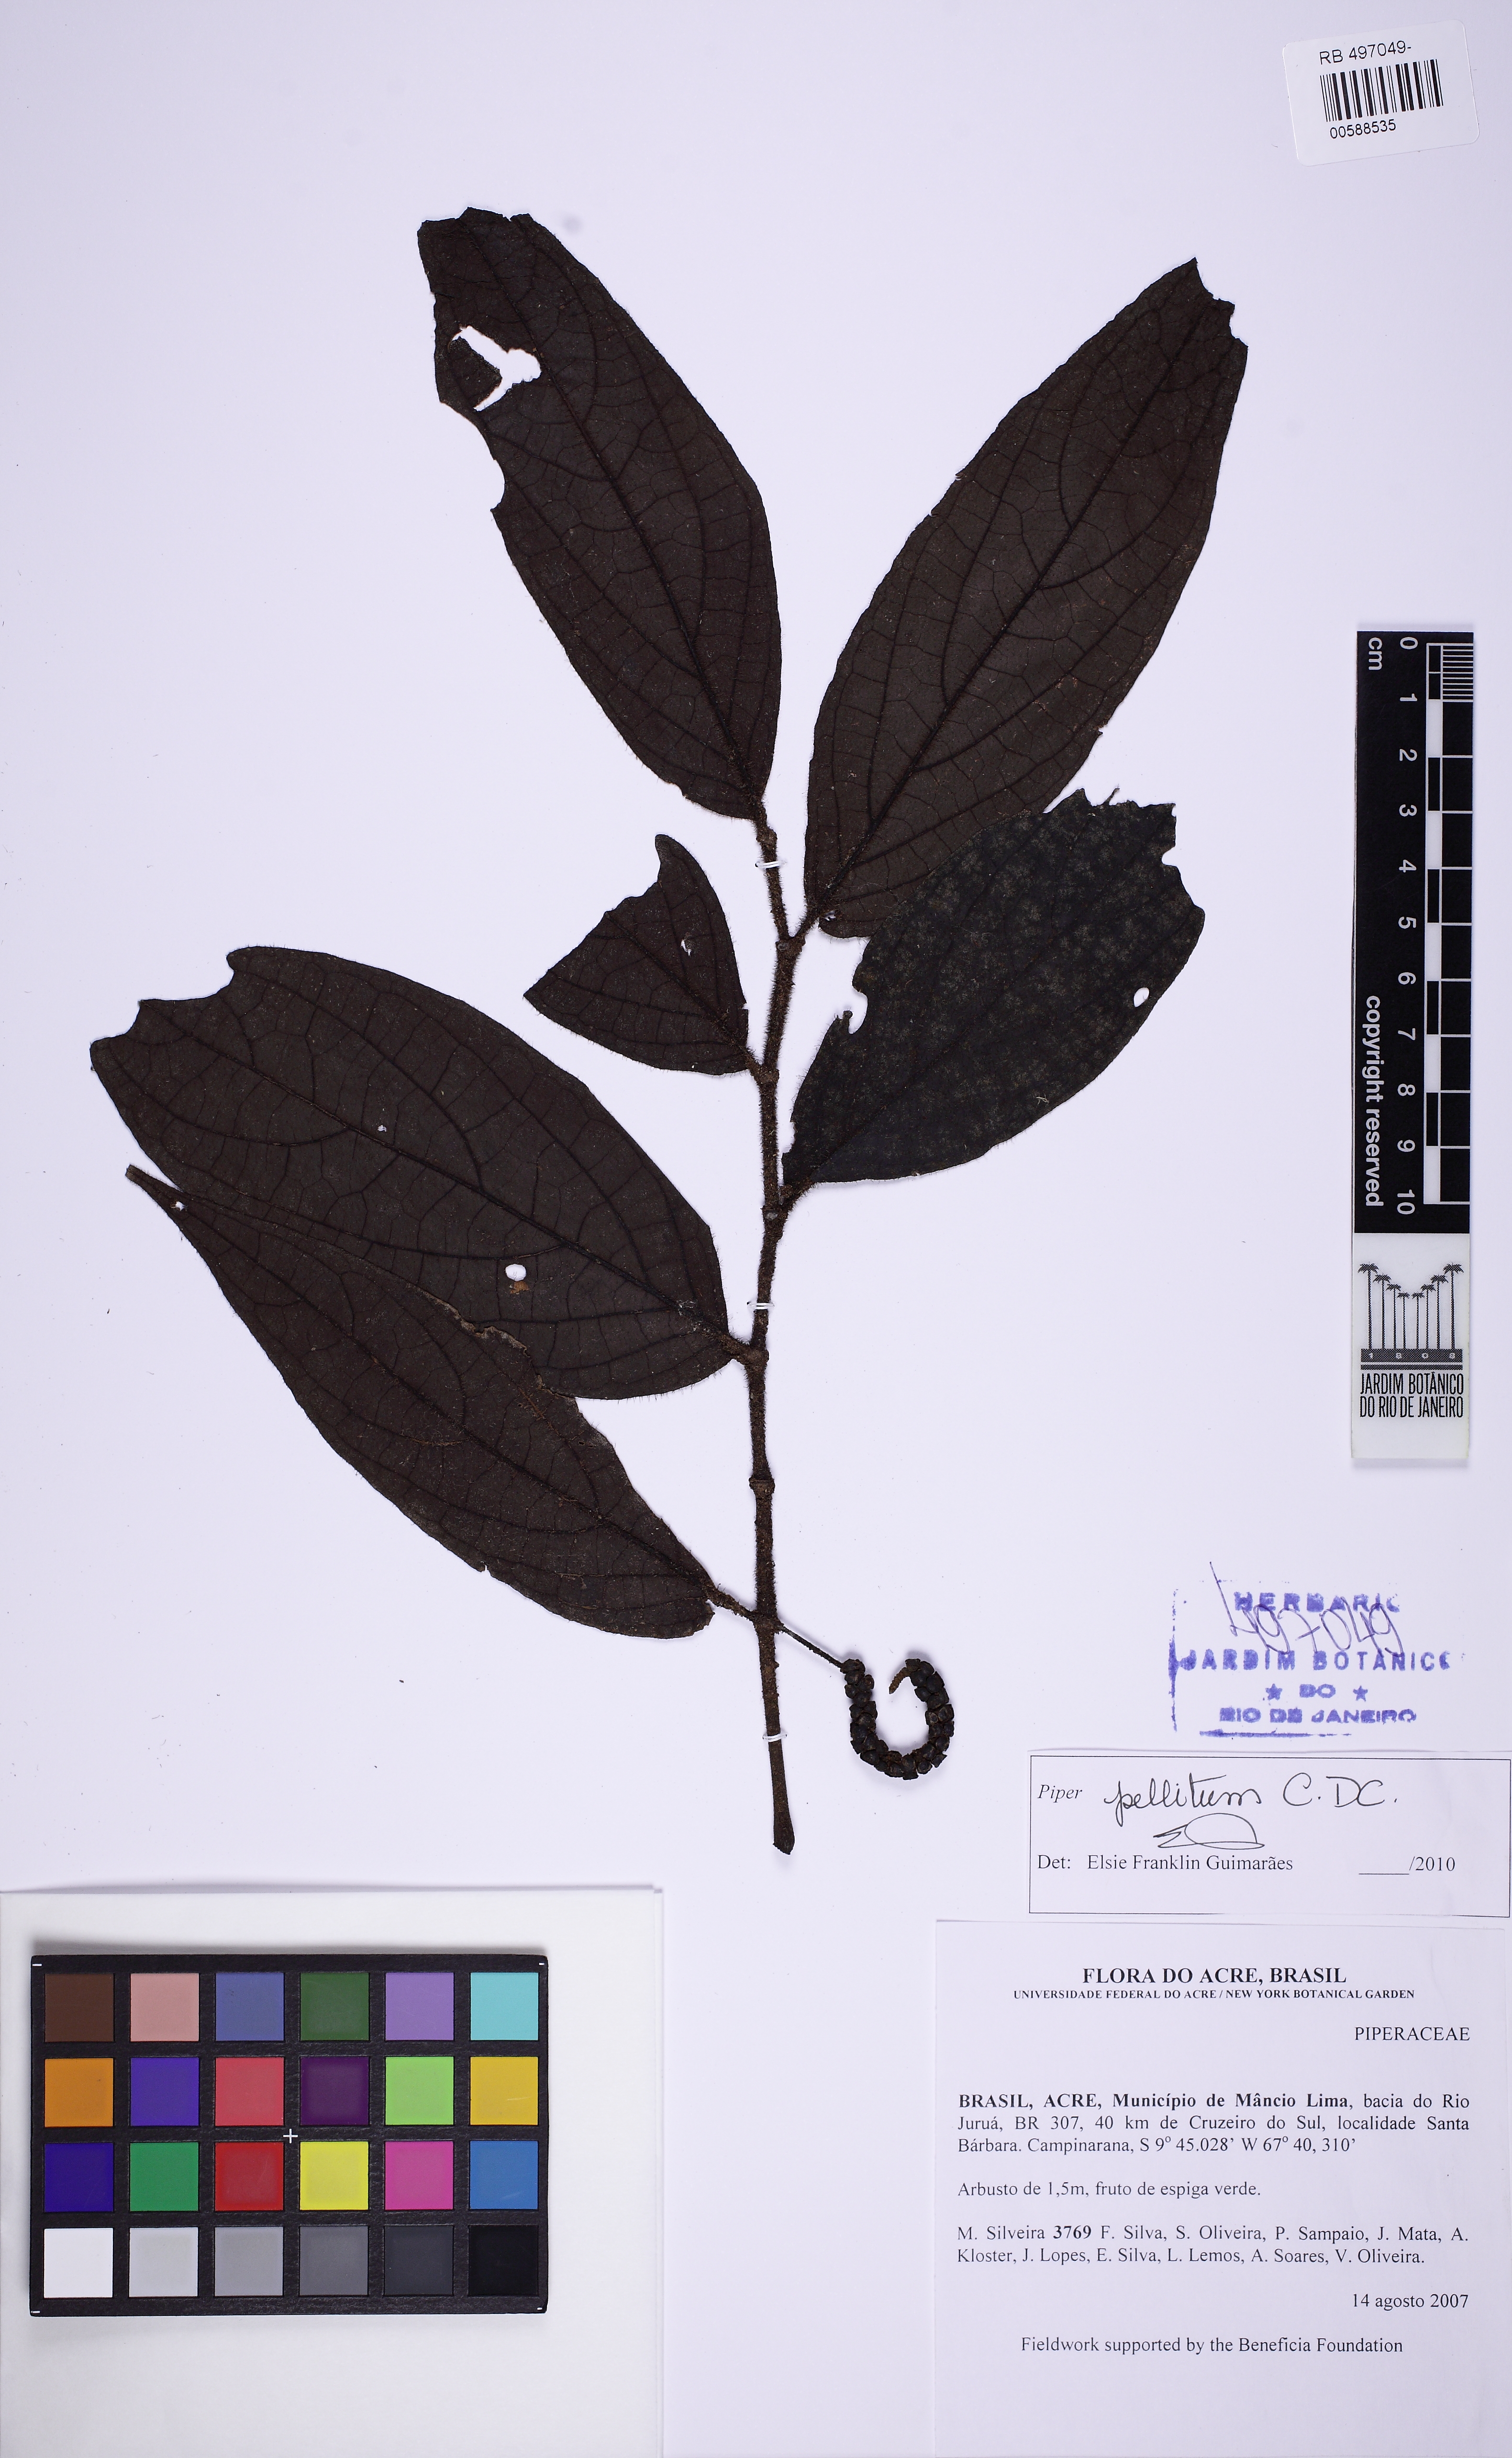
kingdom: Plantae
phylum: Tracheophyta
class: Magnoliopsida
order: Piperales
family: Piperaceae
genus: Piper
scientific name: Piper pellitum
